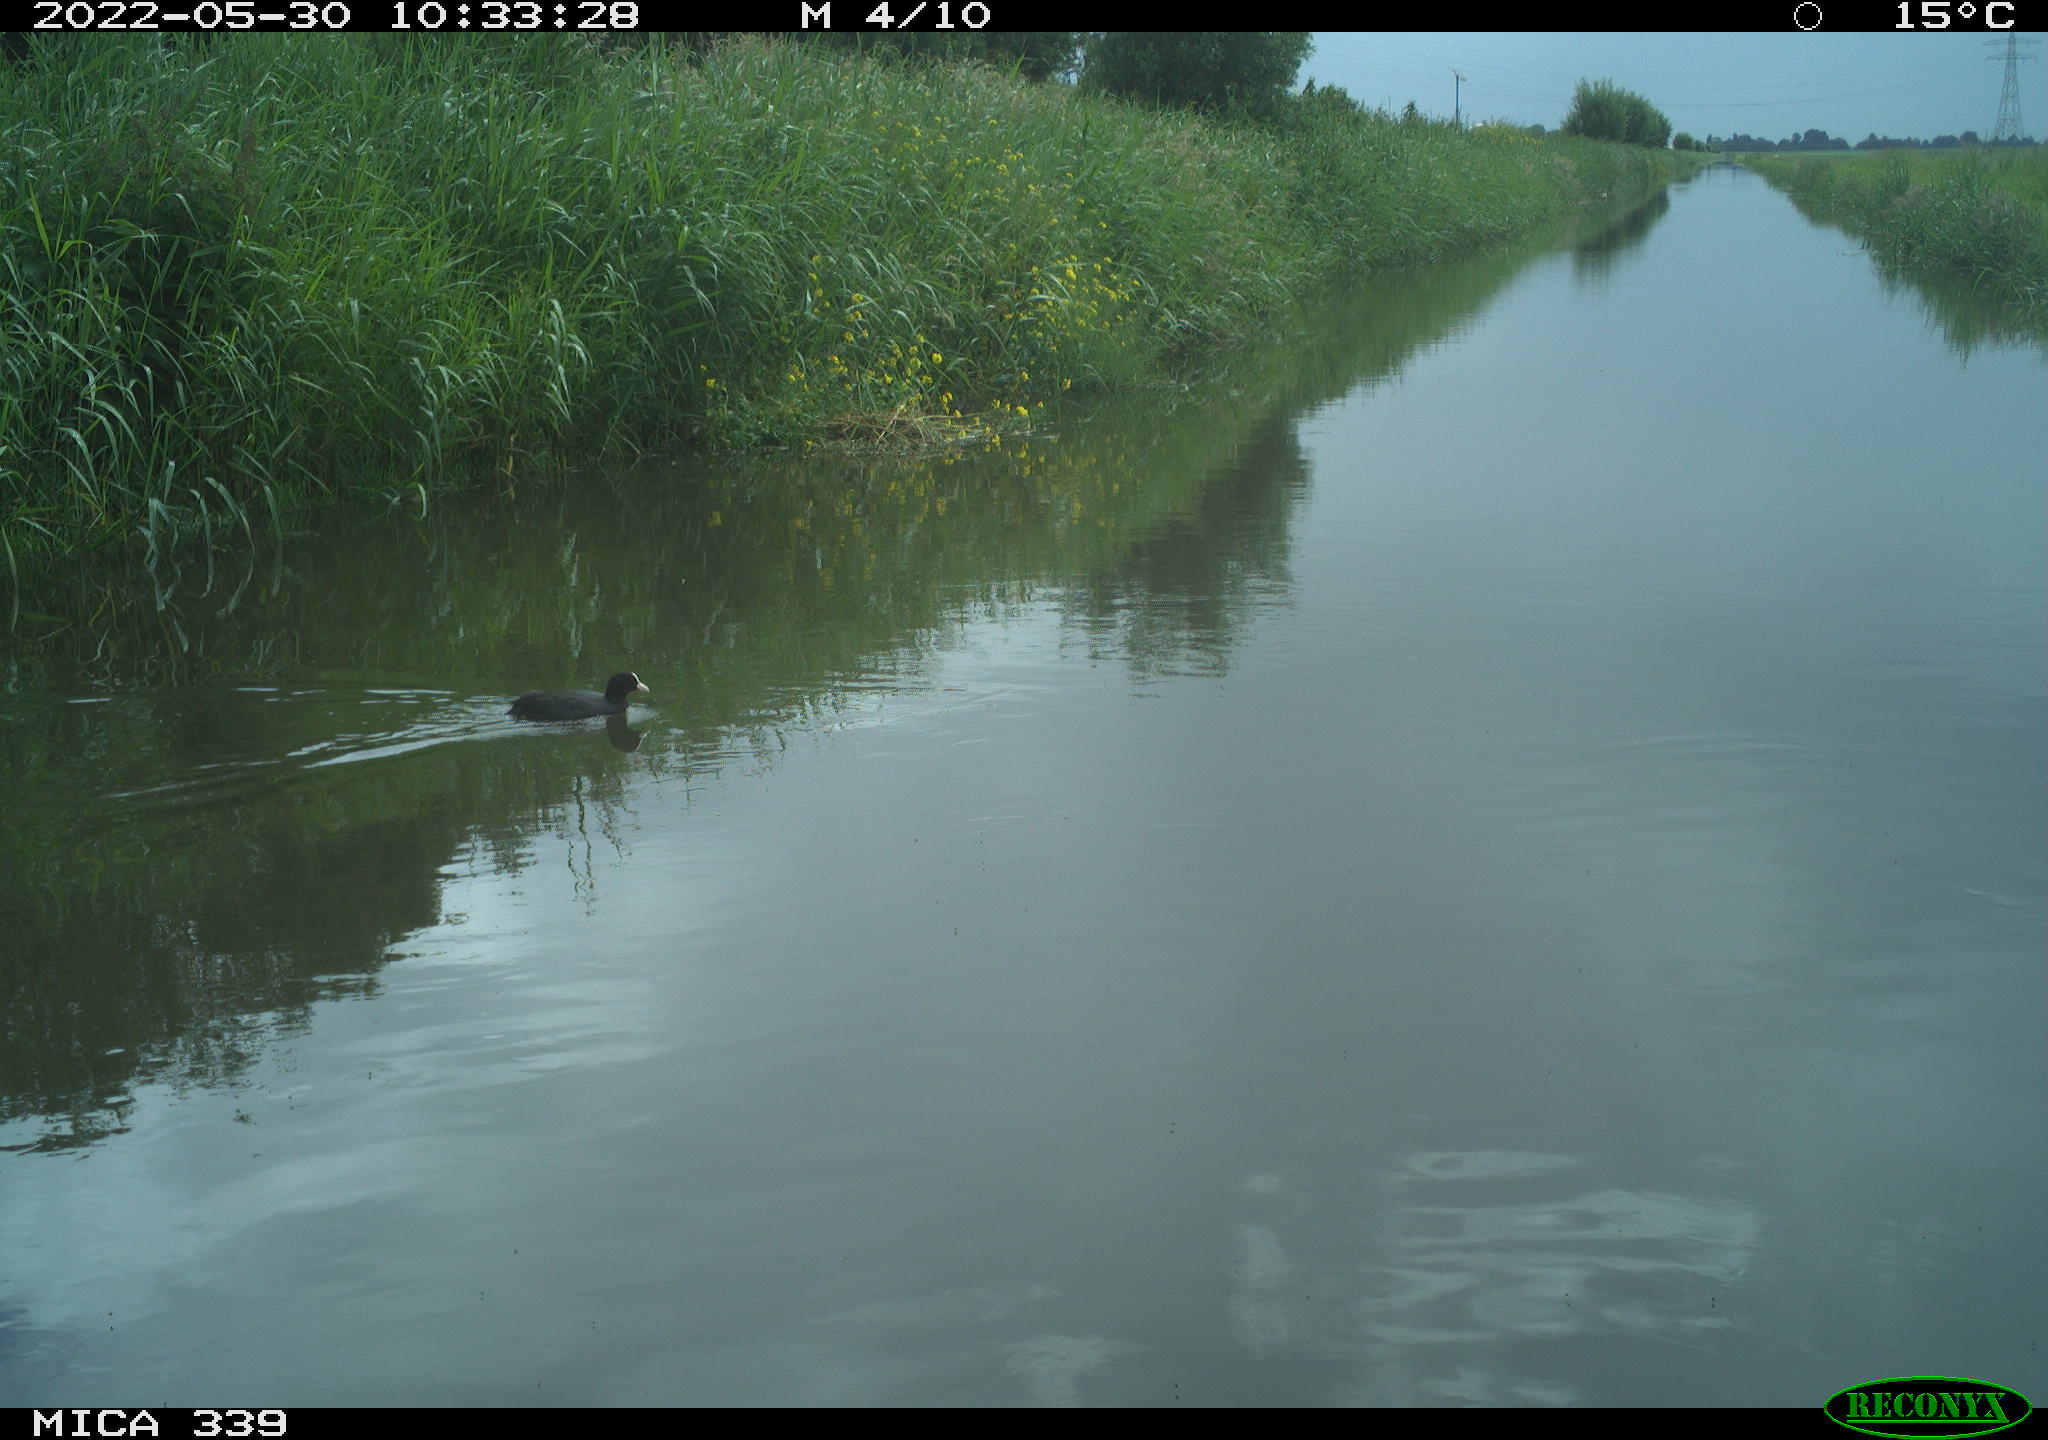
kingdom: Animalia
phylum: Chordata
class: Aves
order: Gruiformes
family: Rallidae
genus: Fulica
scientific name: Fulica atra
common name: Eurasian coot
